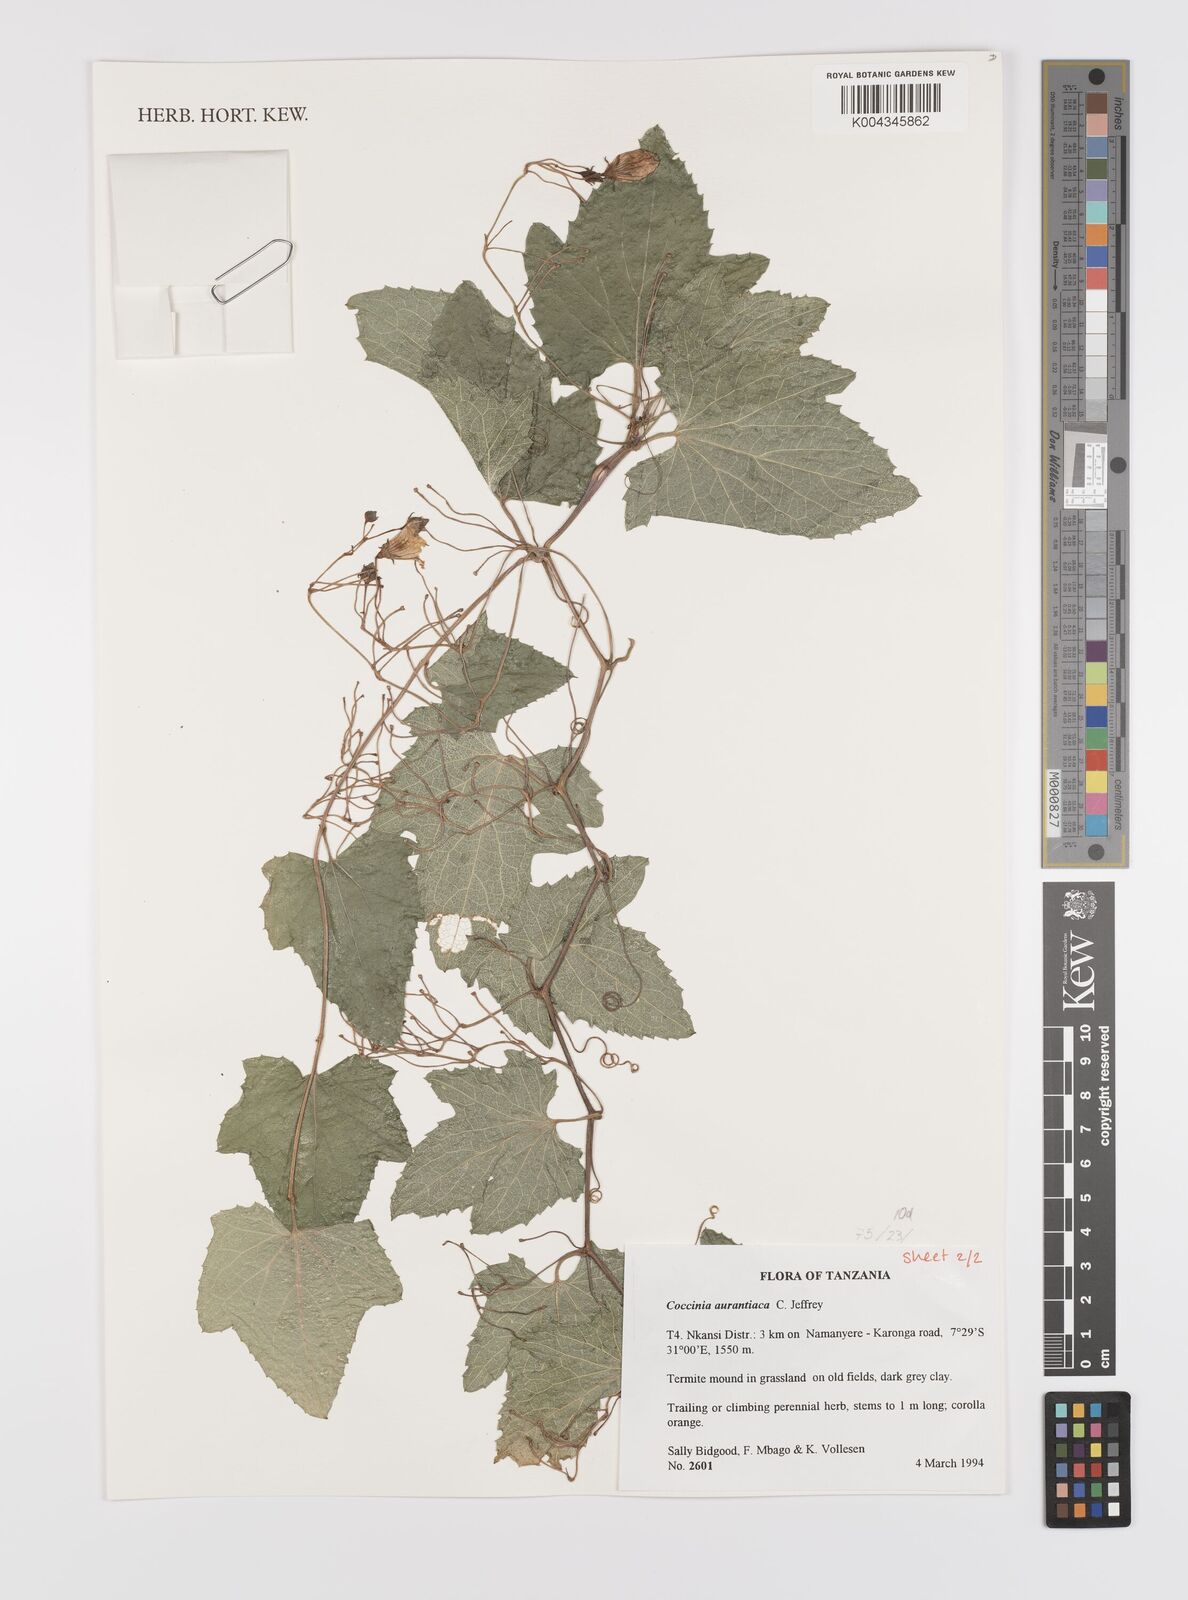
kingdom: Plantae
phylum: Tracheophyta
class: Magnoliopsida
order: Cucurbitales
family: Cucurbitaceae
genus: Coccinia
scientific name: Coccinia adoensis
